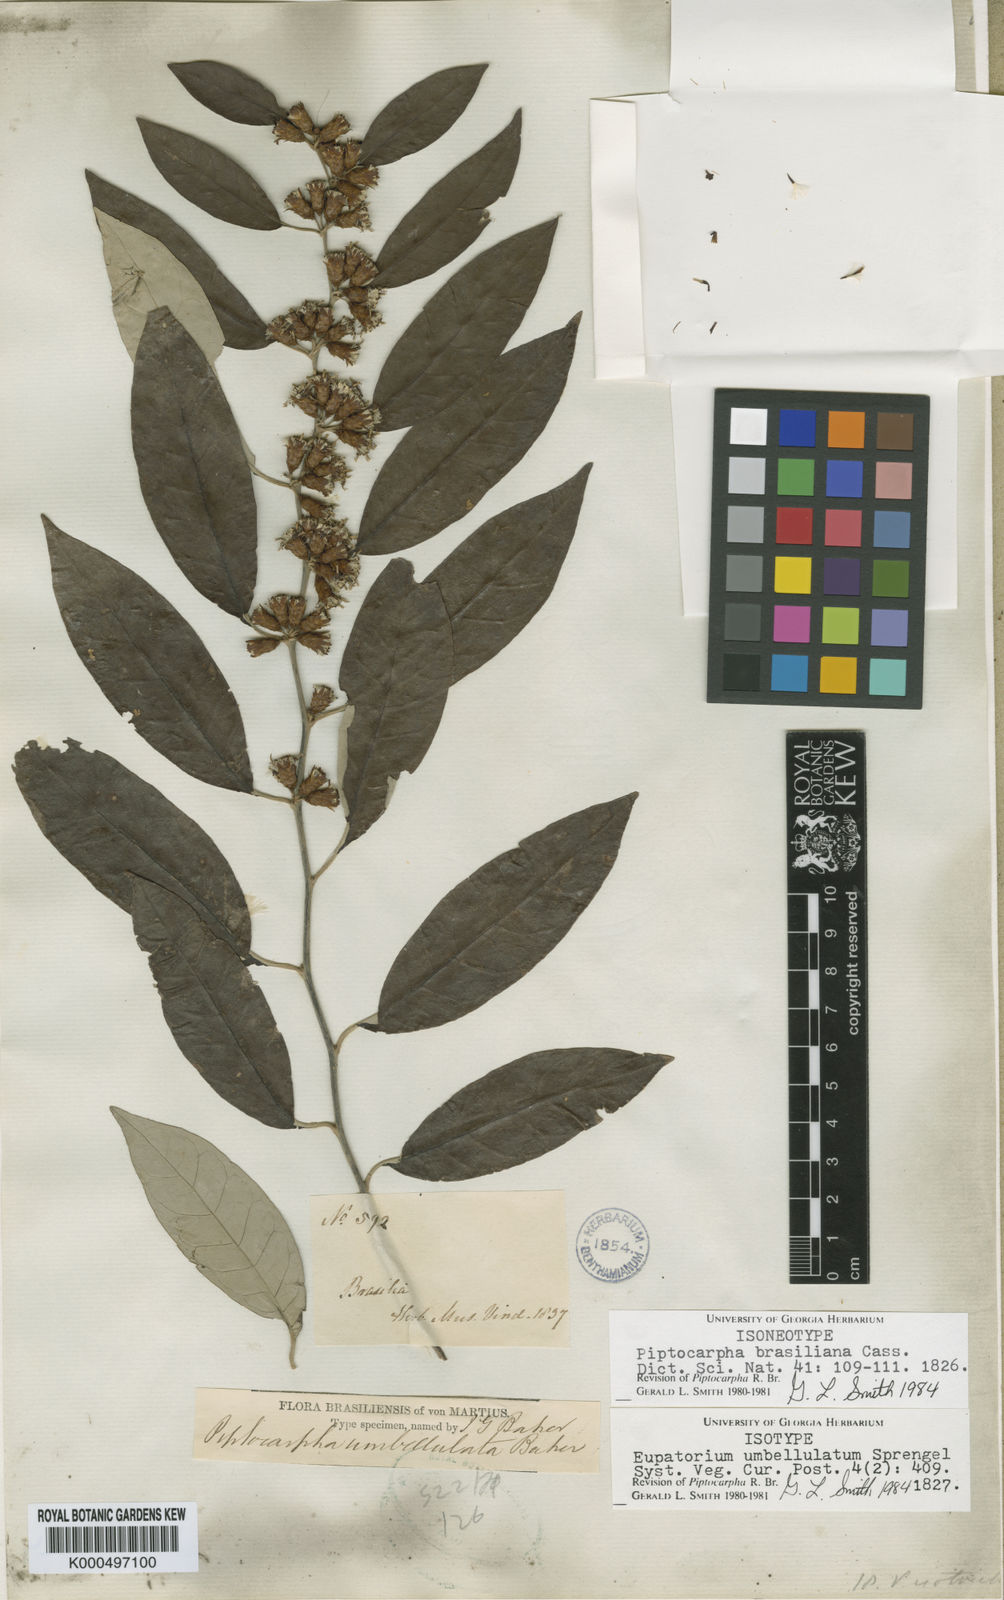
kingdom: Plantae
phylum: Tracheophyta
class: Magnoliopsida
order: Asterales
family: Asteraceae
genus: Piptocarpha
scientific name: Piptocarpha brasiliana
